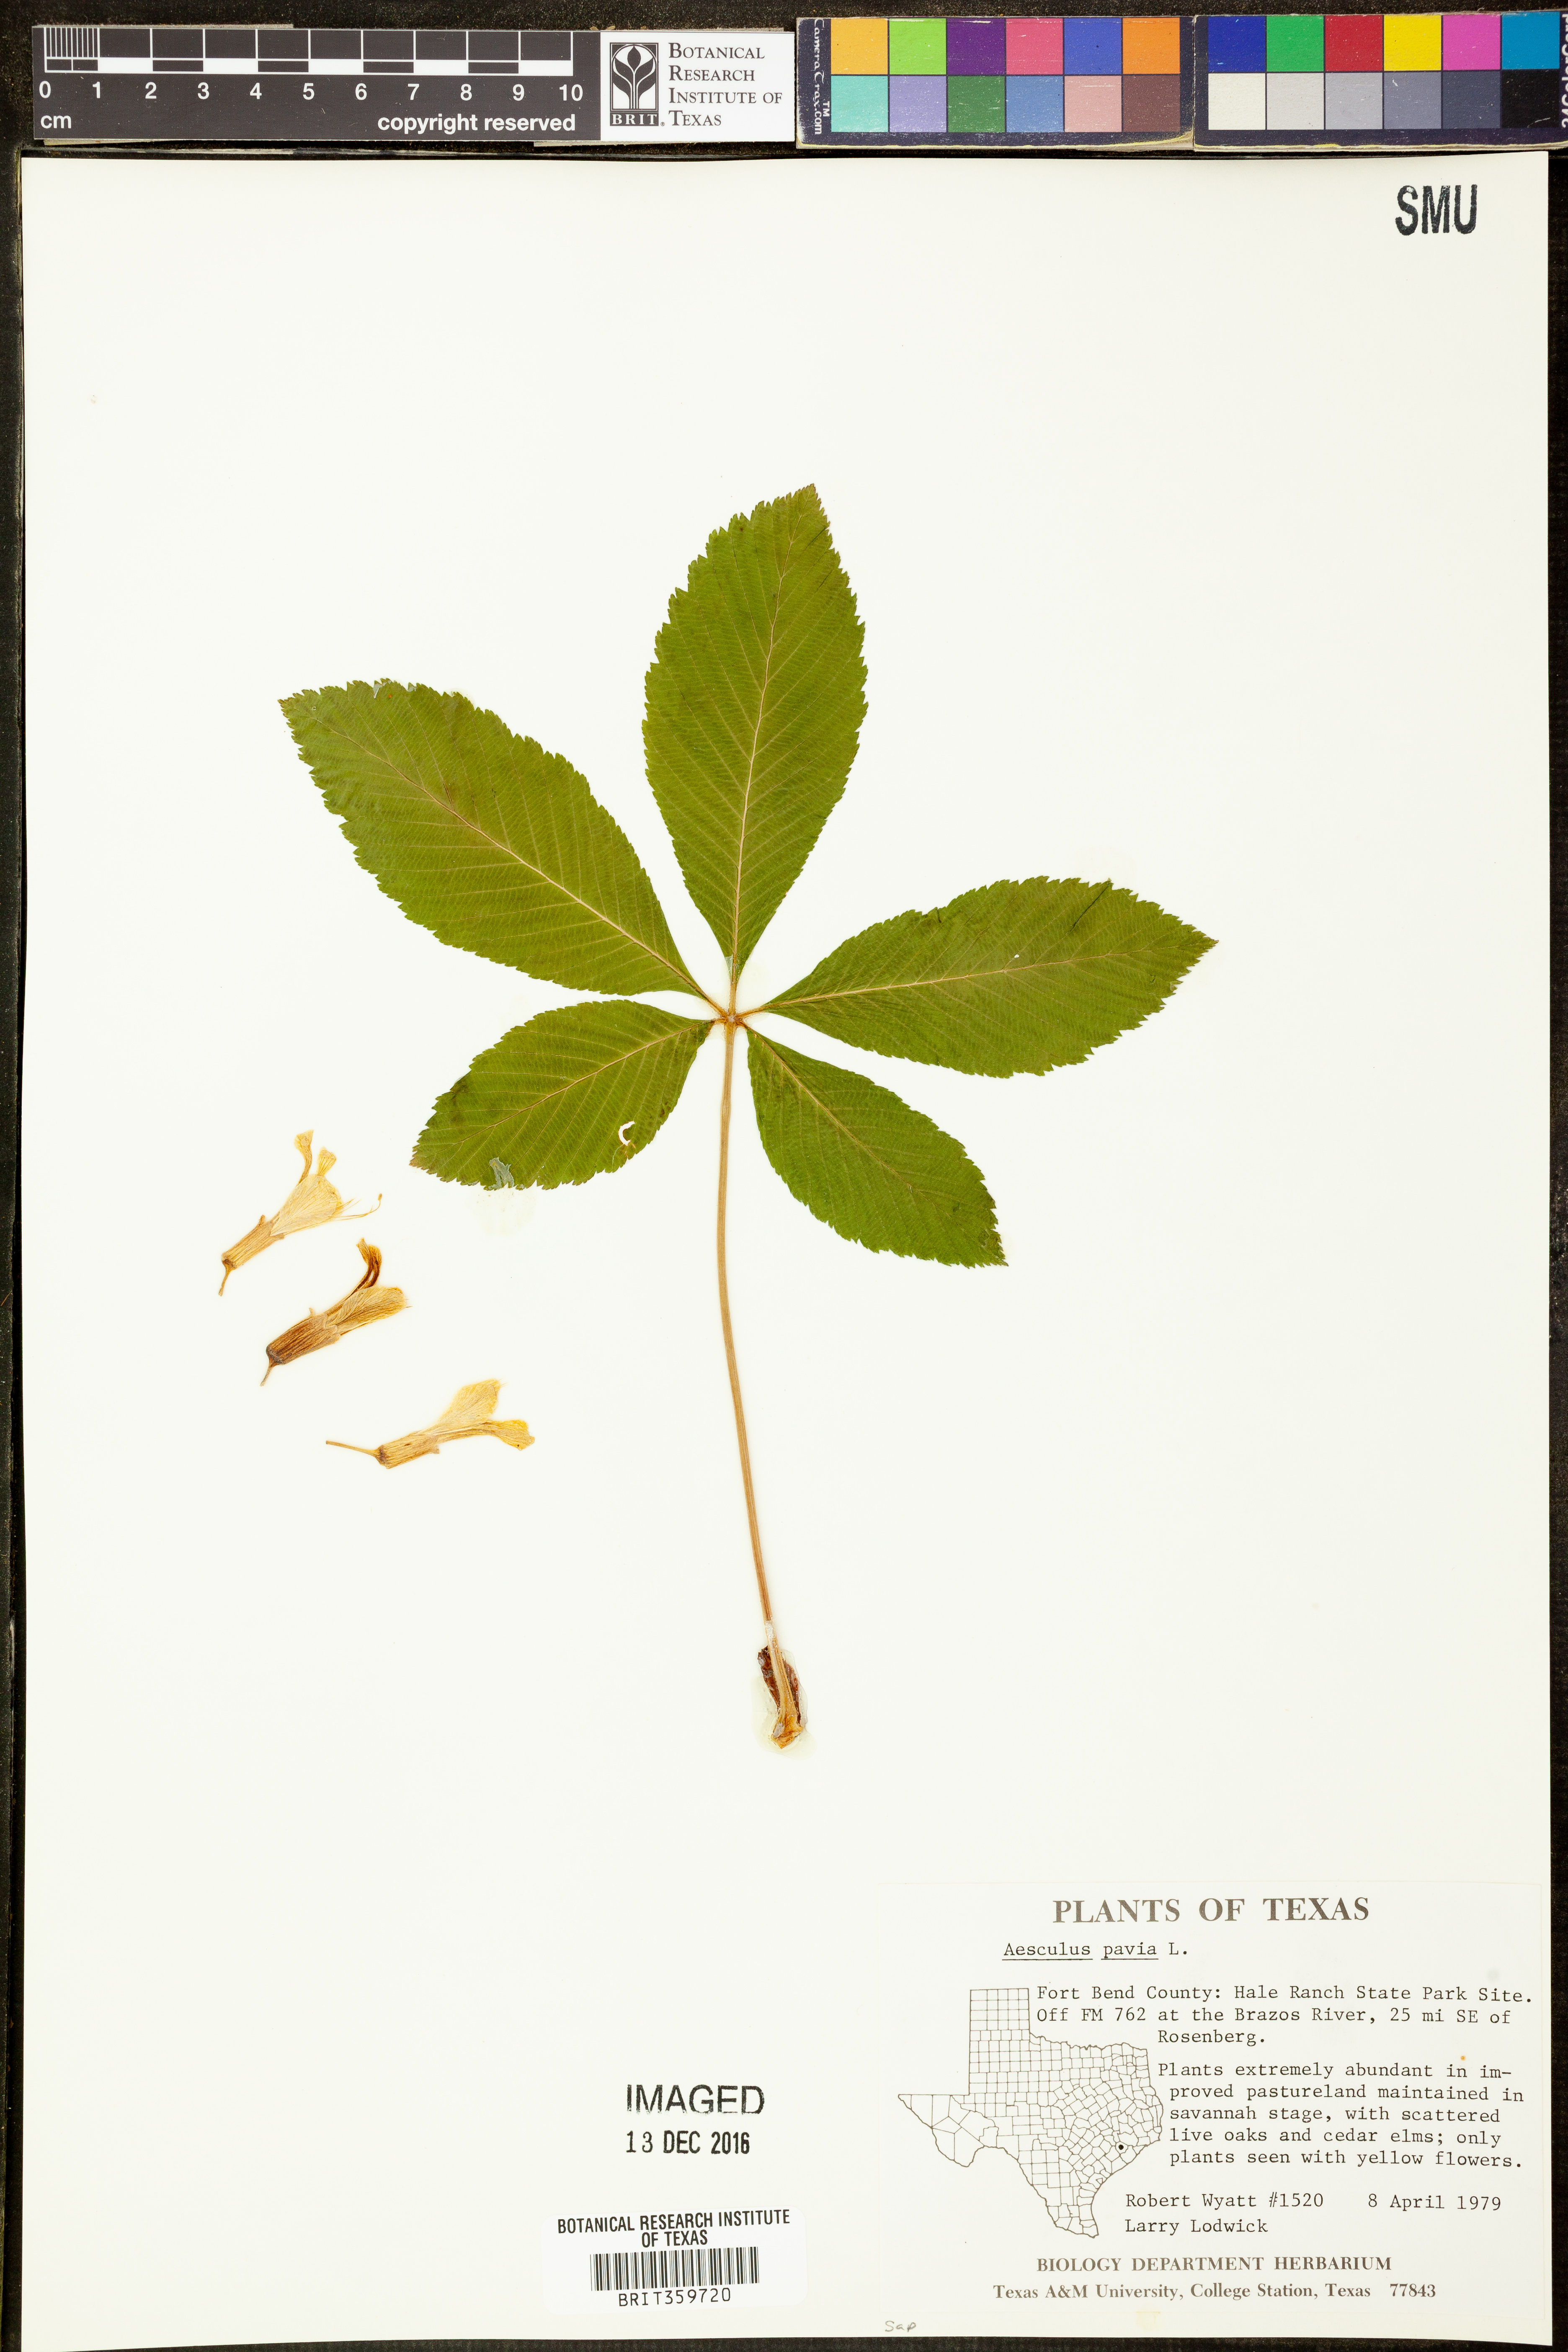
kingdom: Plantae
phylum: Tracheophyta
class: Magnoliopsida
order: Sapindales
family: Sapindaceae
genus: Aesculus
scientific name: Aesculus pavia
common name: Red buckeye
